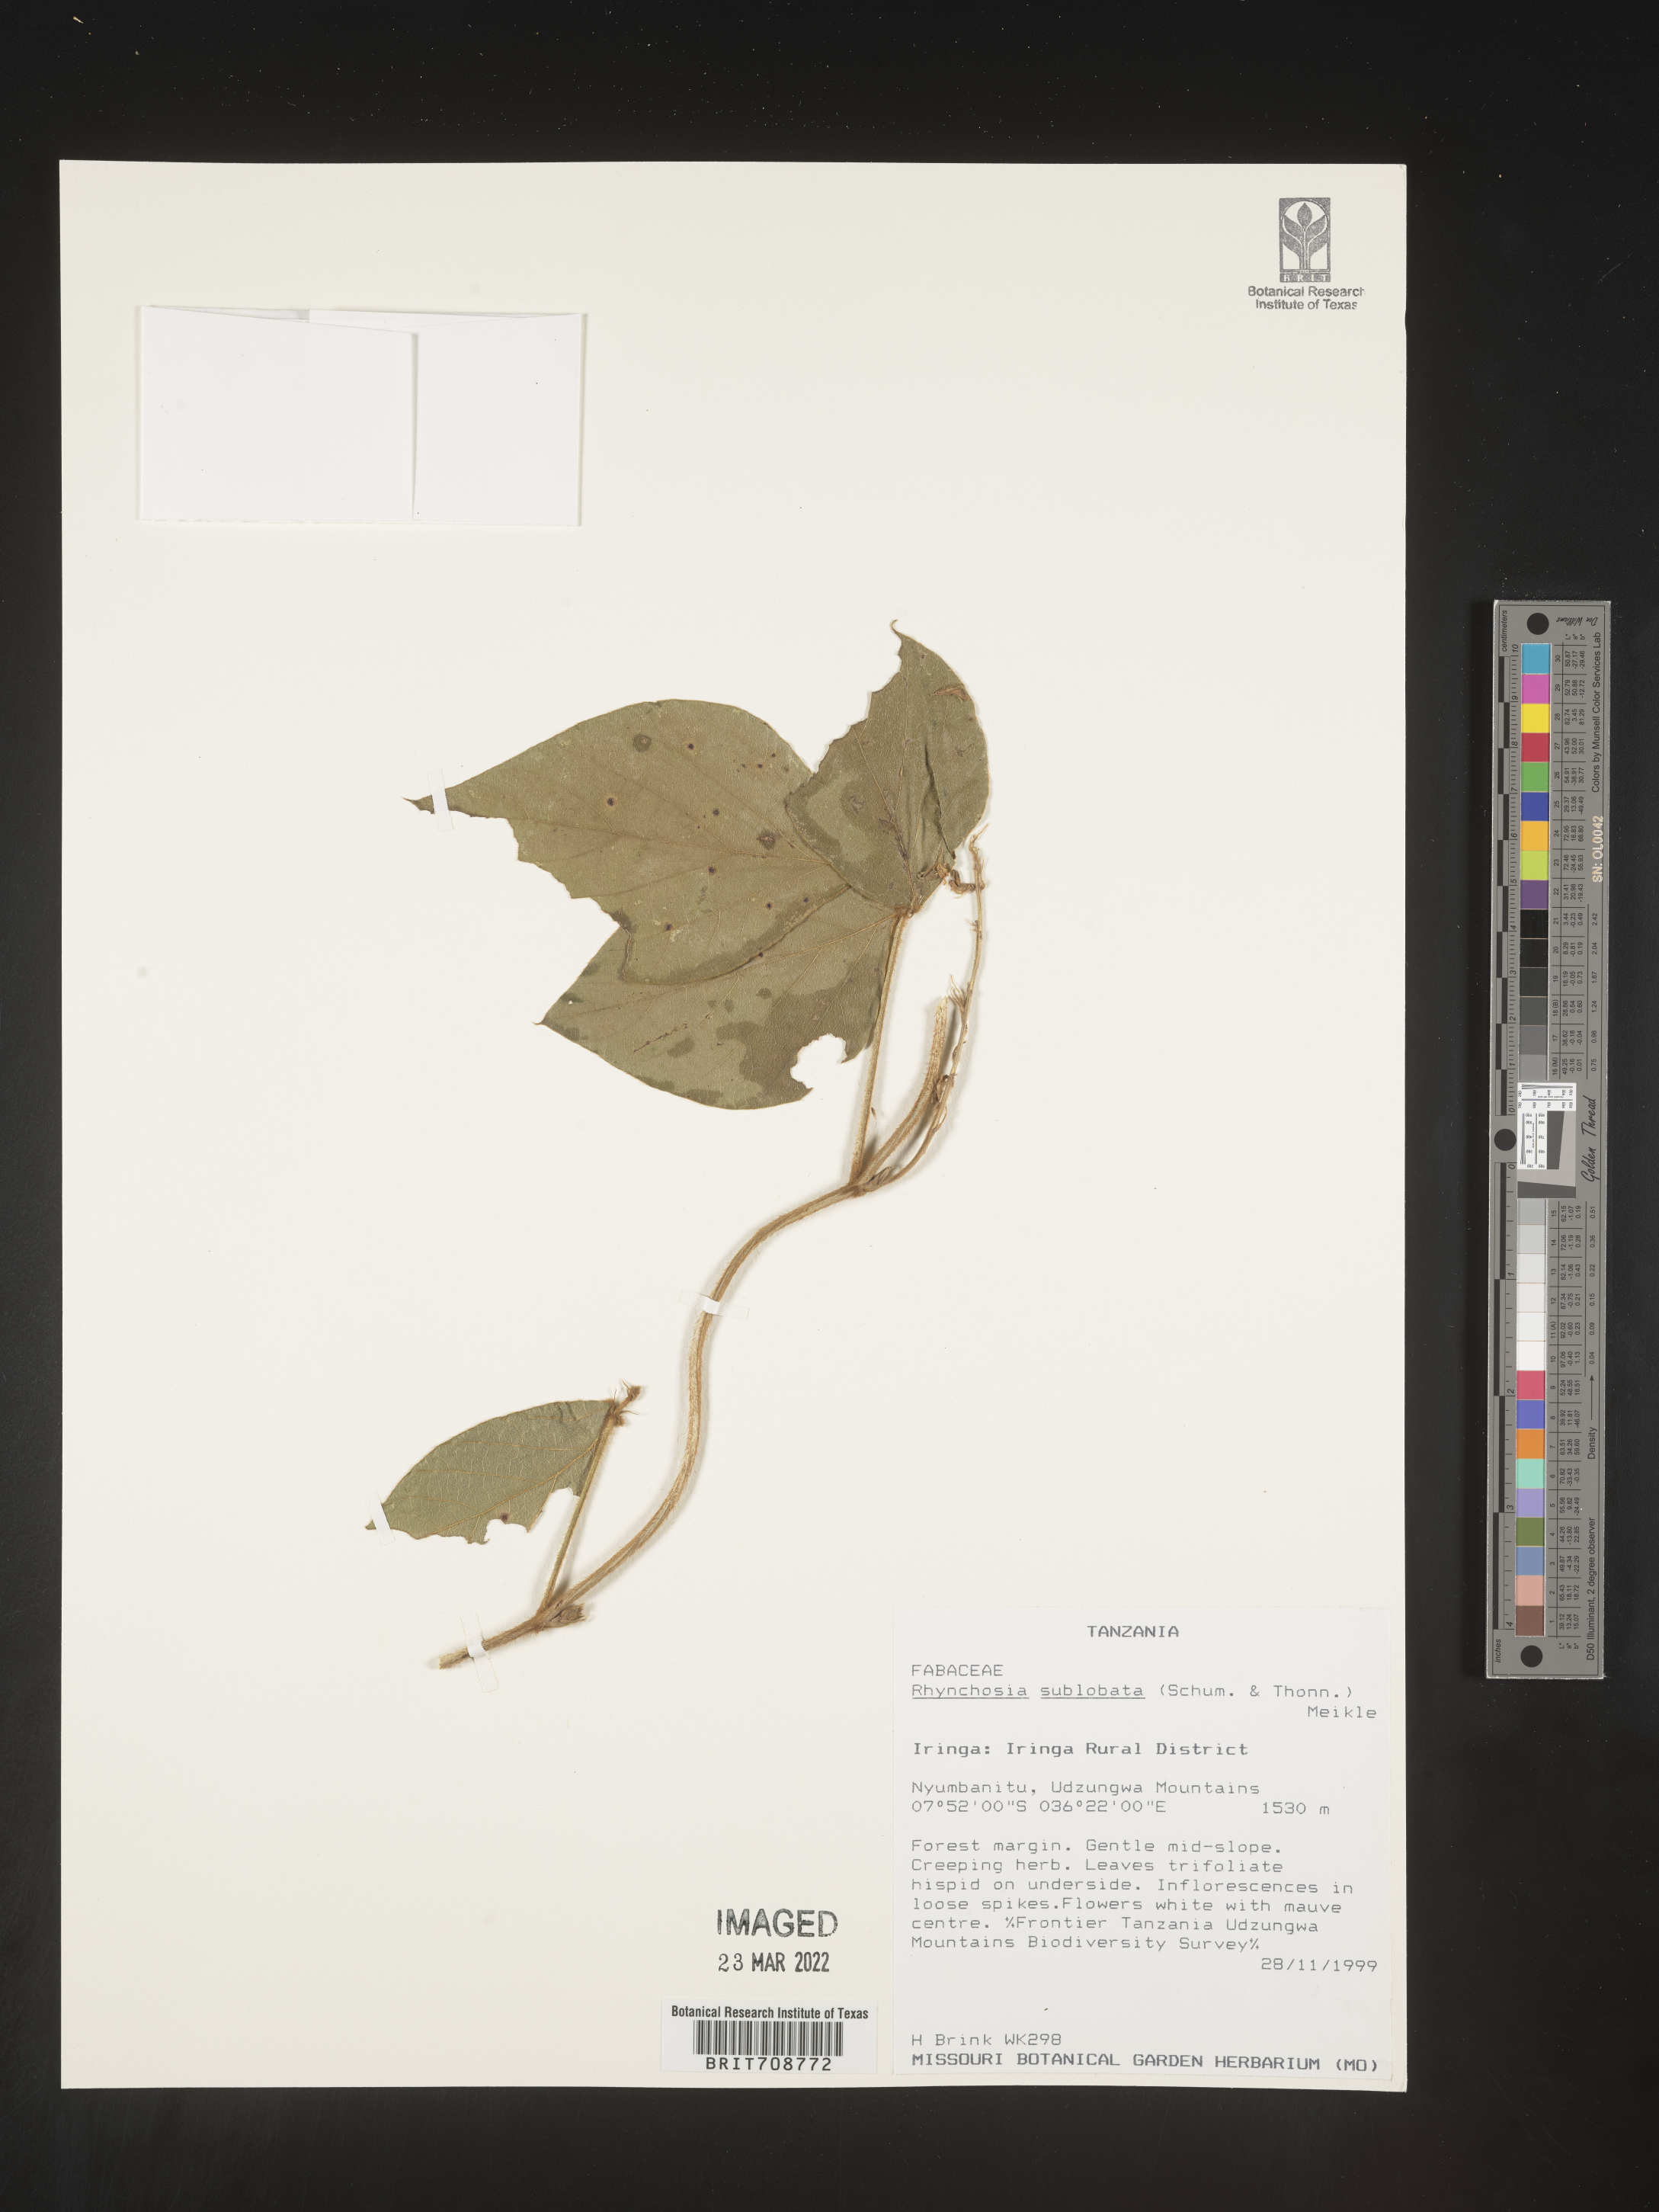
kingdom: Plantae
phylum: Tracheophyta
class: Magnoliopsida
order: Fabales
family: Fabaceae
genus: Rhynchosia
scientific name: Rhynchosia
